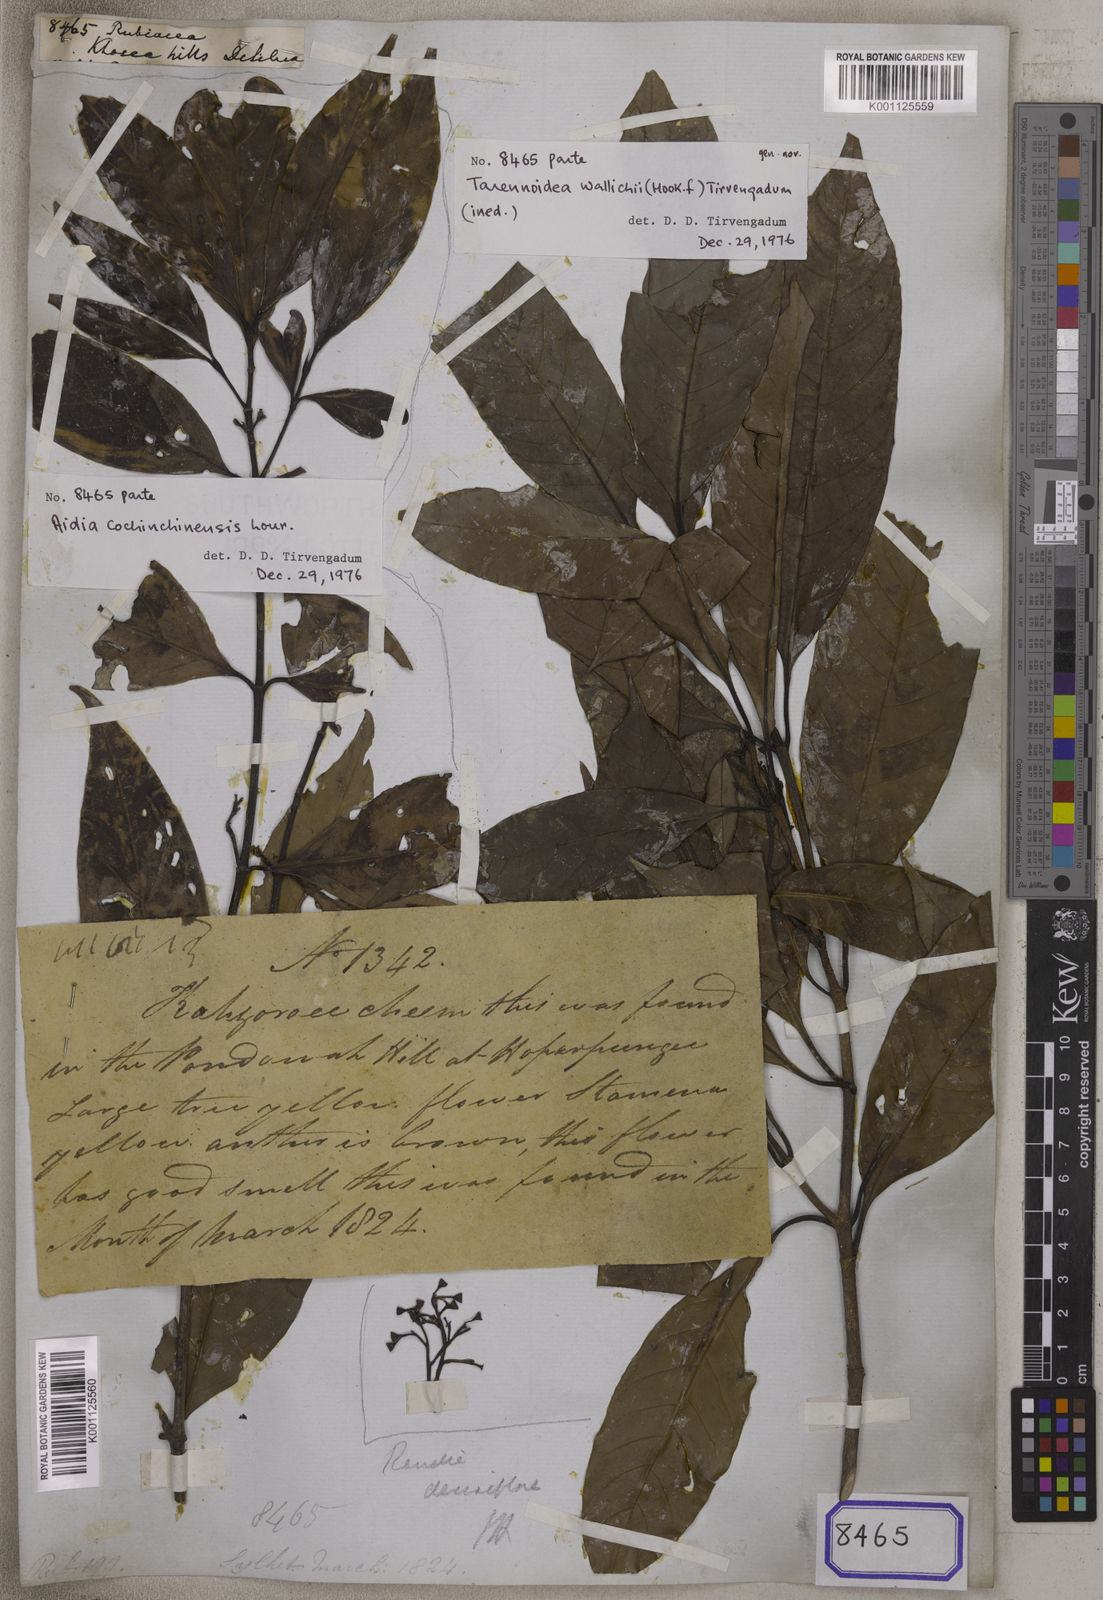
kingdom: Plantae
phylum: Tracheophyta
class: Magnoliopsida
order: Gentianales
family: Rubiaceae
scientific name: Rubiaceae
